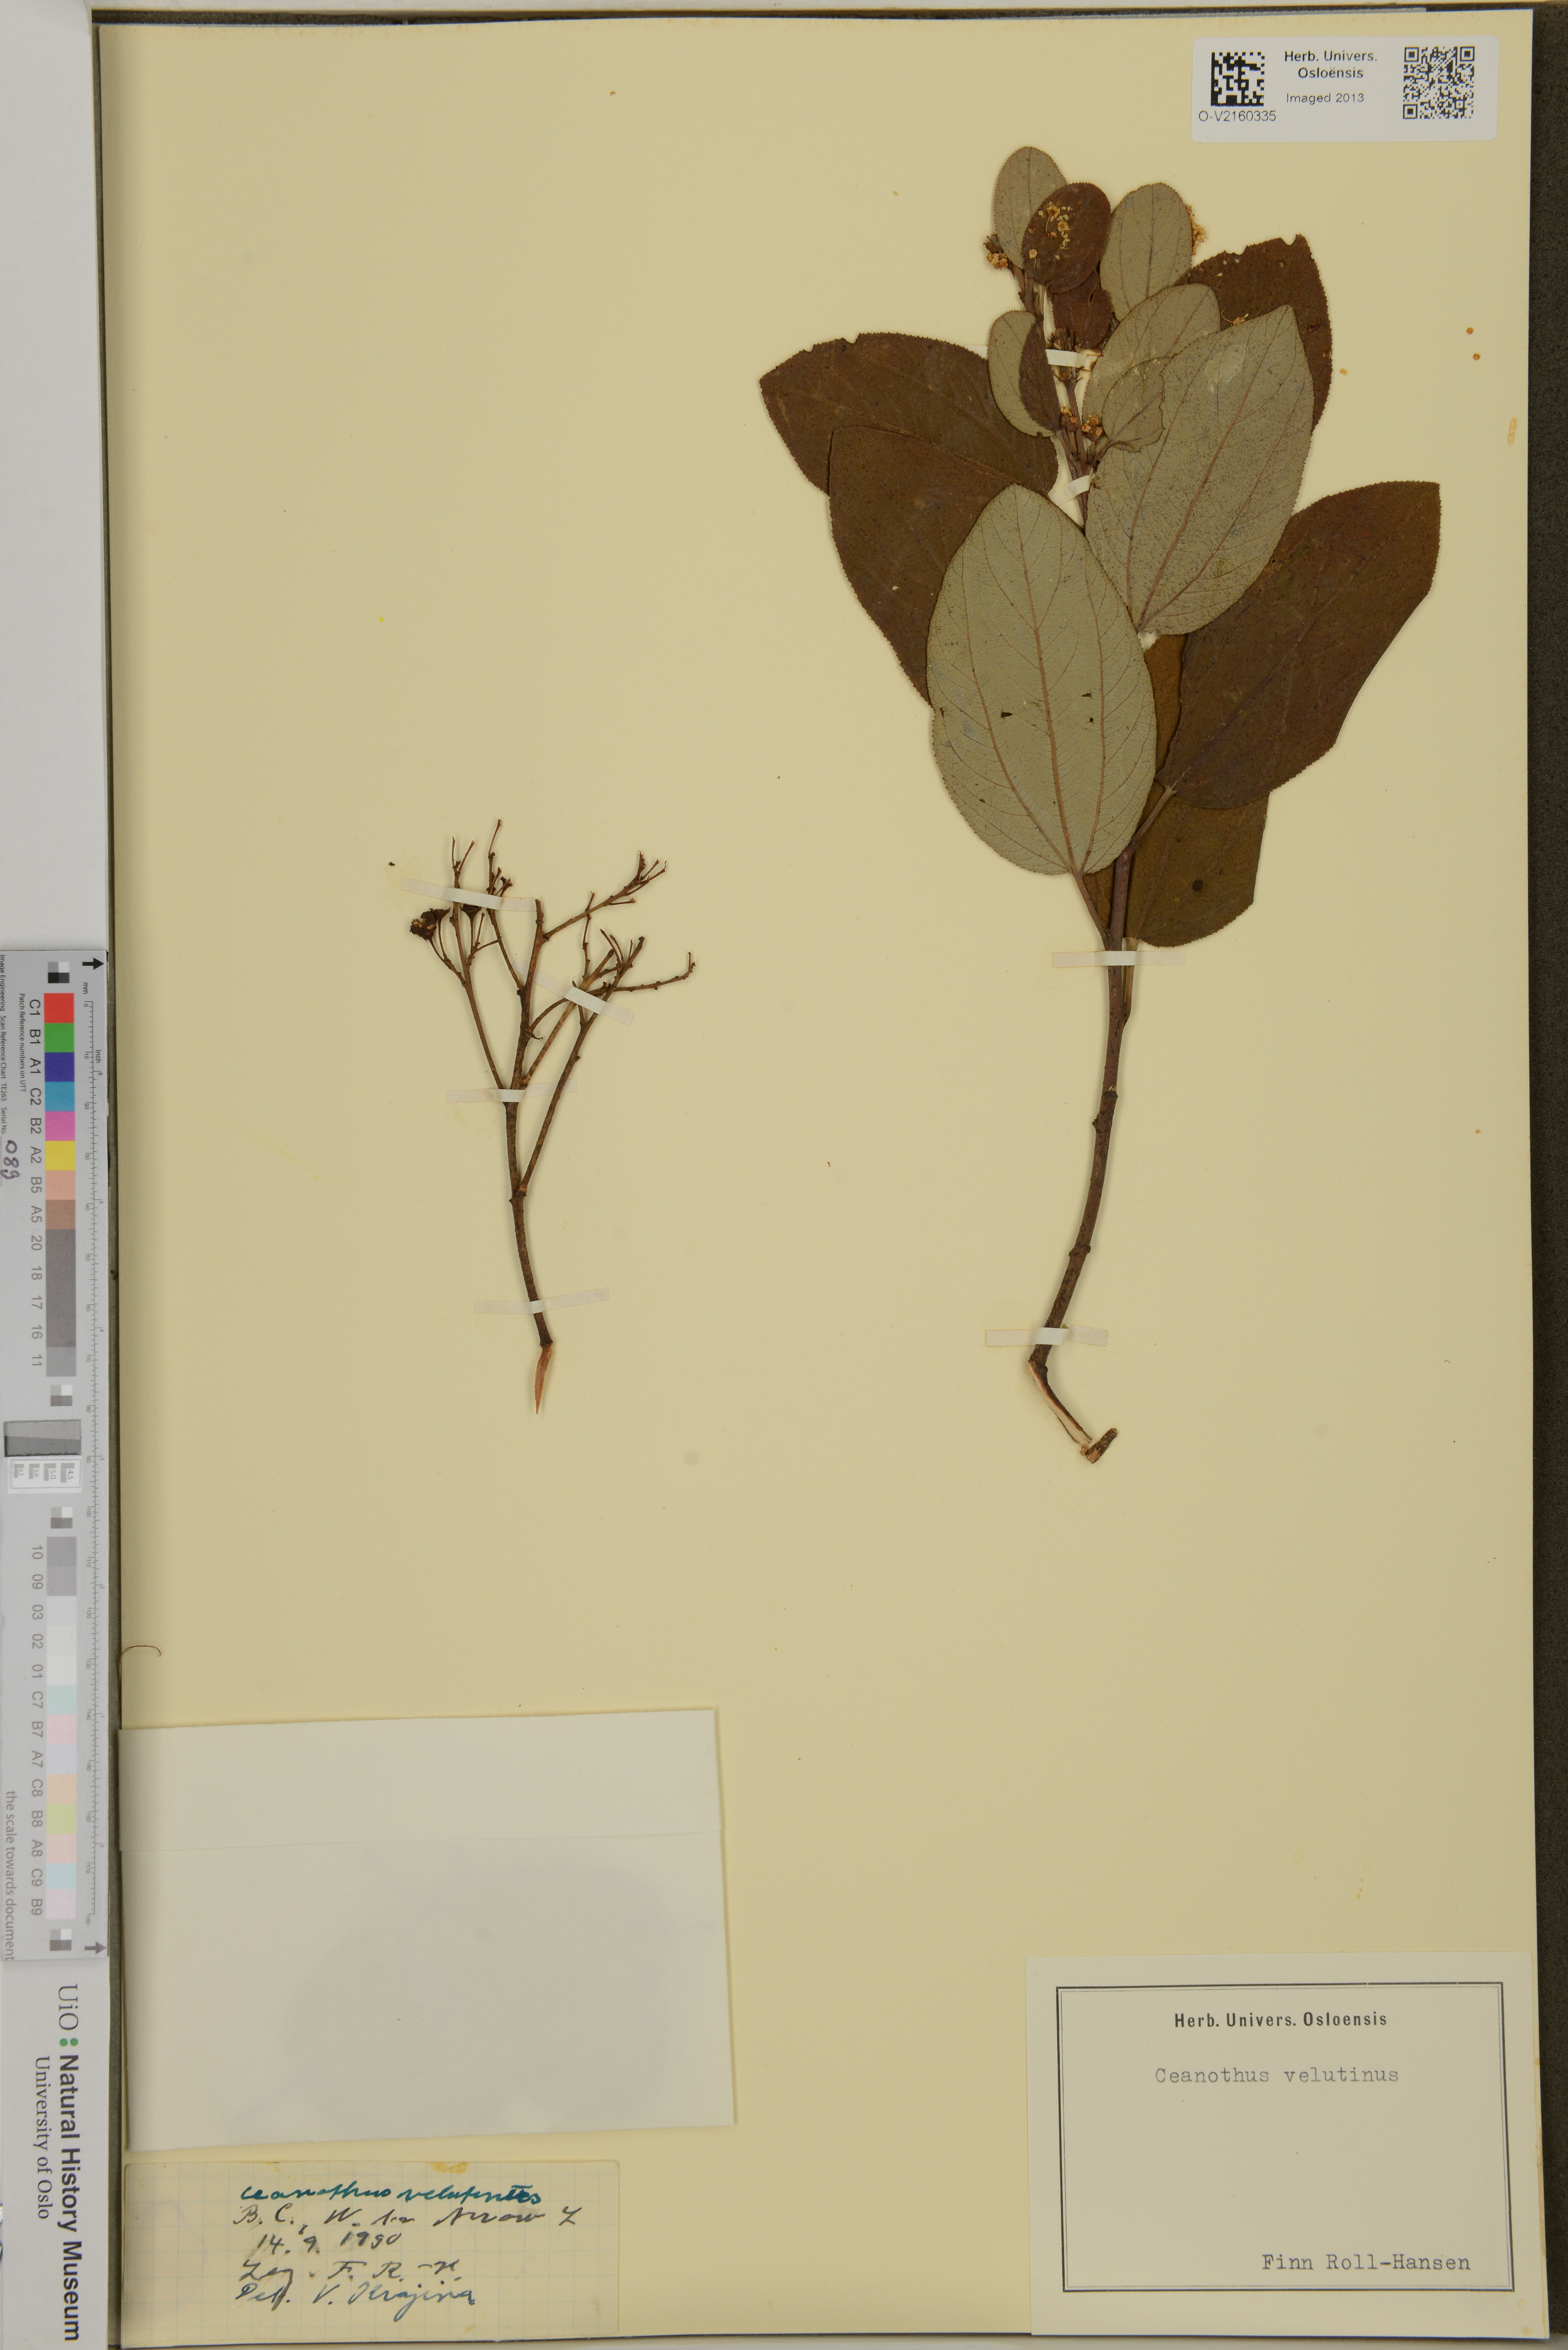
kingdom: Plantae
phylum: Tracheophyta
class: Magnoliopsida
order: Rosales
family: Rhamnaceae
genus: Ceanothus
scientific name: Ceanothus velutinus
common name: Snowbrush
